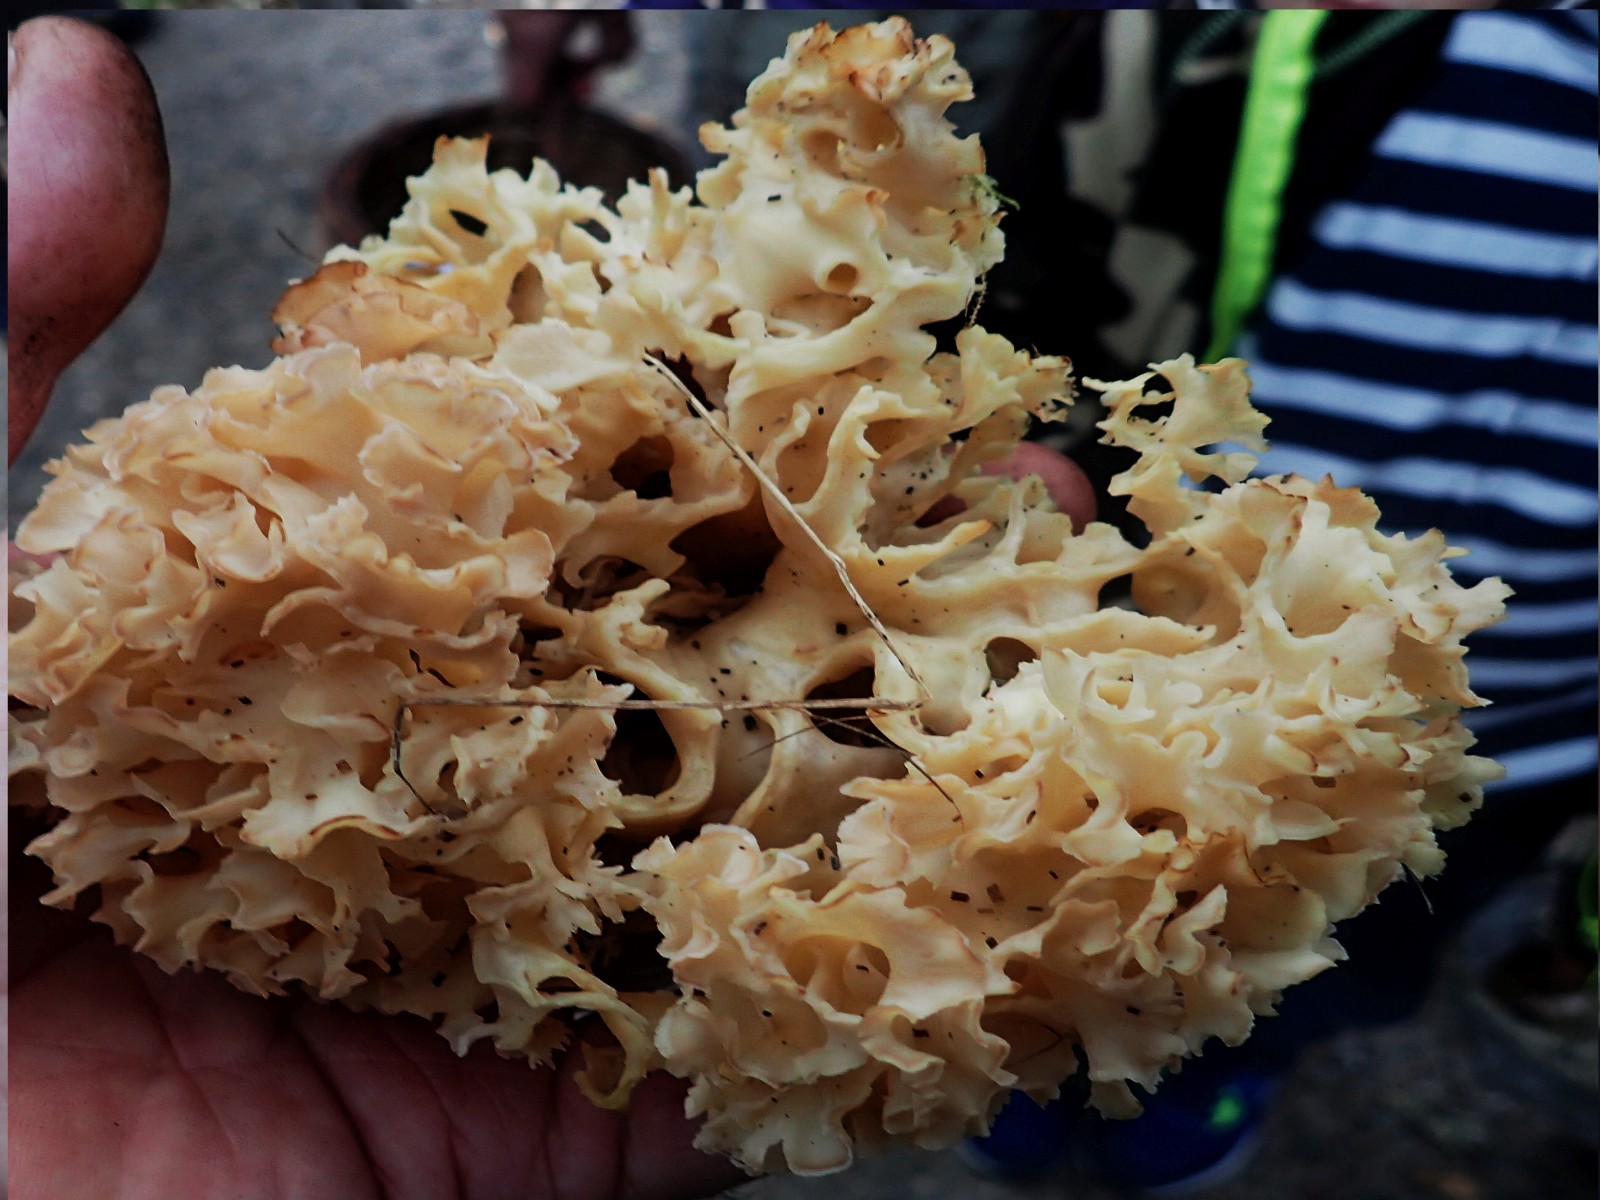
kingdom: Fungi
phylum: Basidiomycota
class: Agaricomycetes
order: Polyporales
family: Sparassidaceae
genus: Sparassis
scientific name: Sparassis crispa
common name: kruset blomkålssvamp
